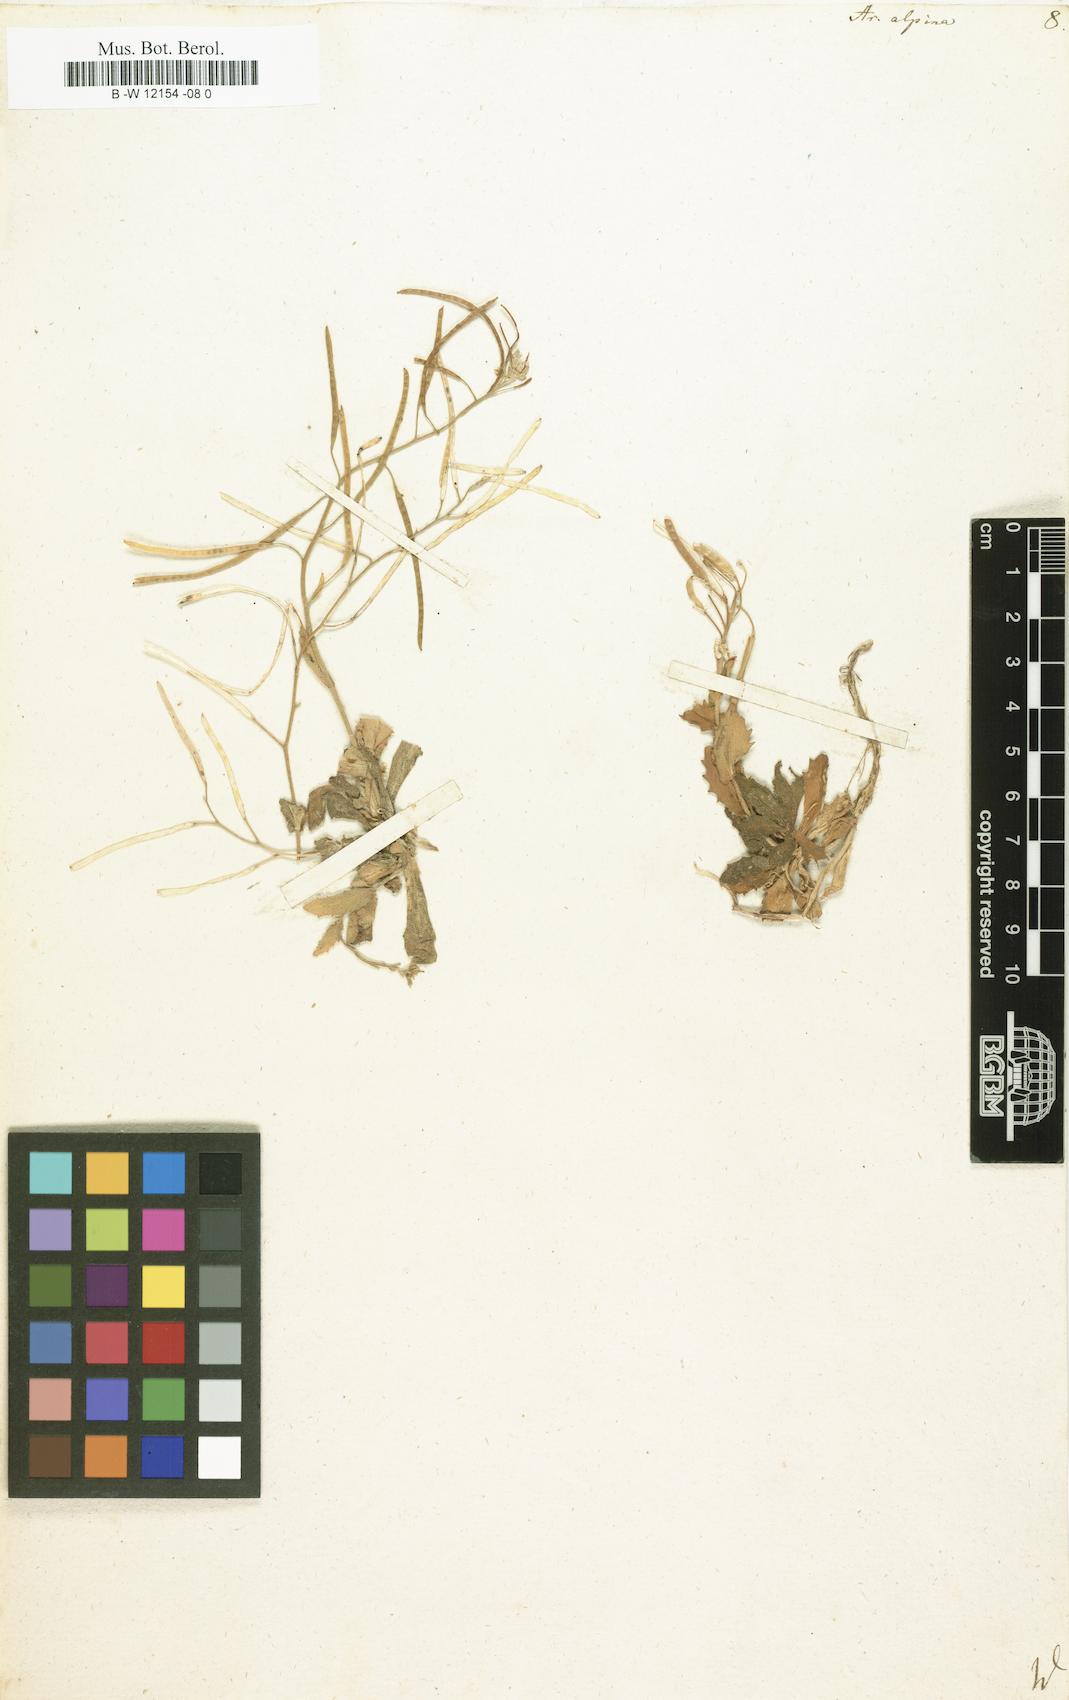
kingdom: Plantae
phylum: Tracheophyta
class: Magnoliopsida
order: Brassicales
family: Brassicaceae
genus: Arabis
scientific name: Arabis alpina
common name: Alpine rock-cress
